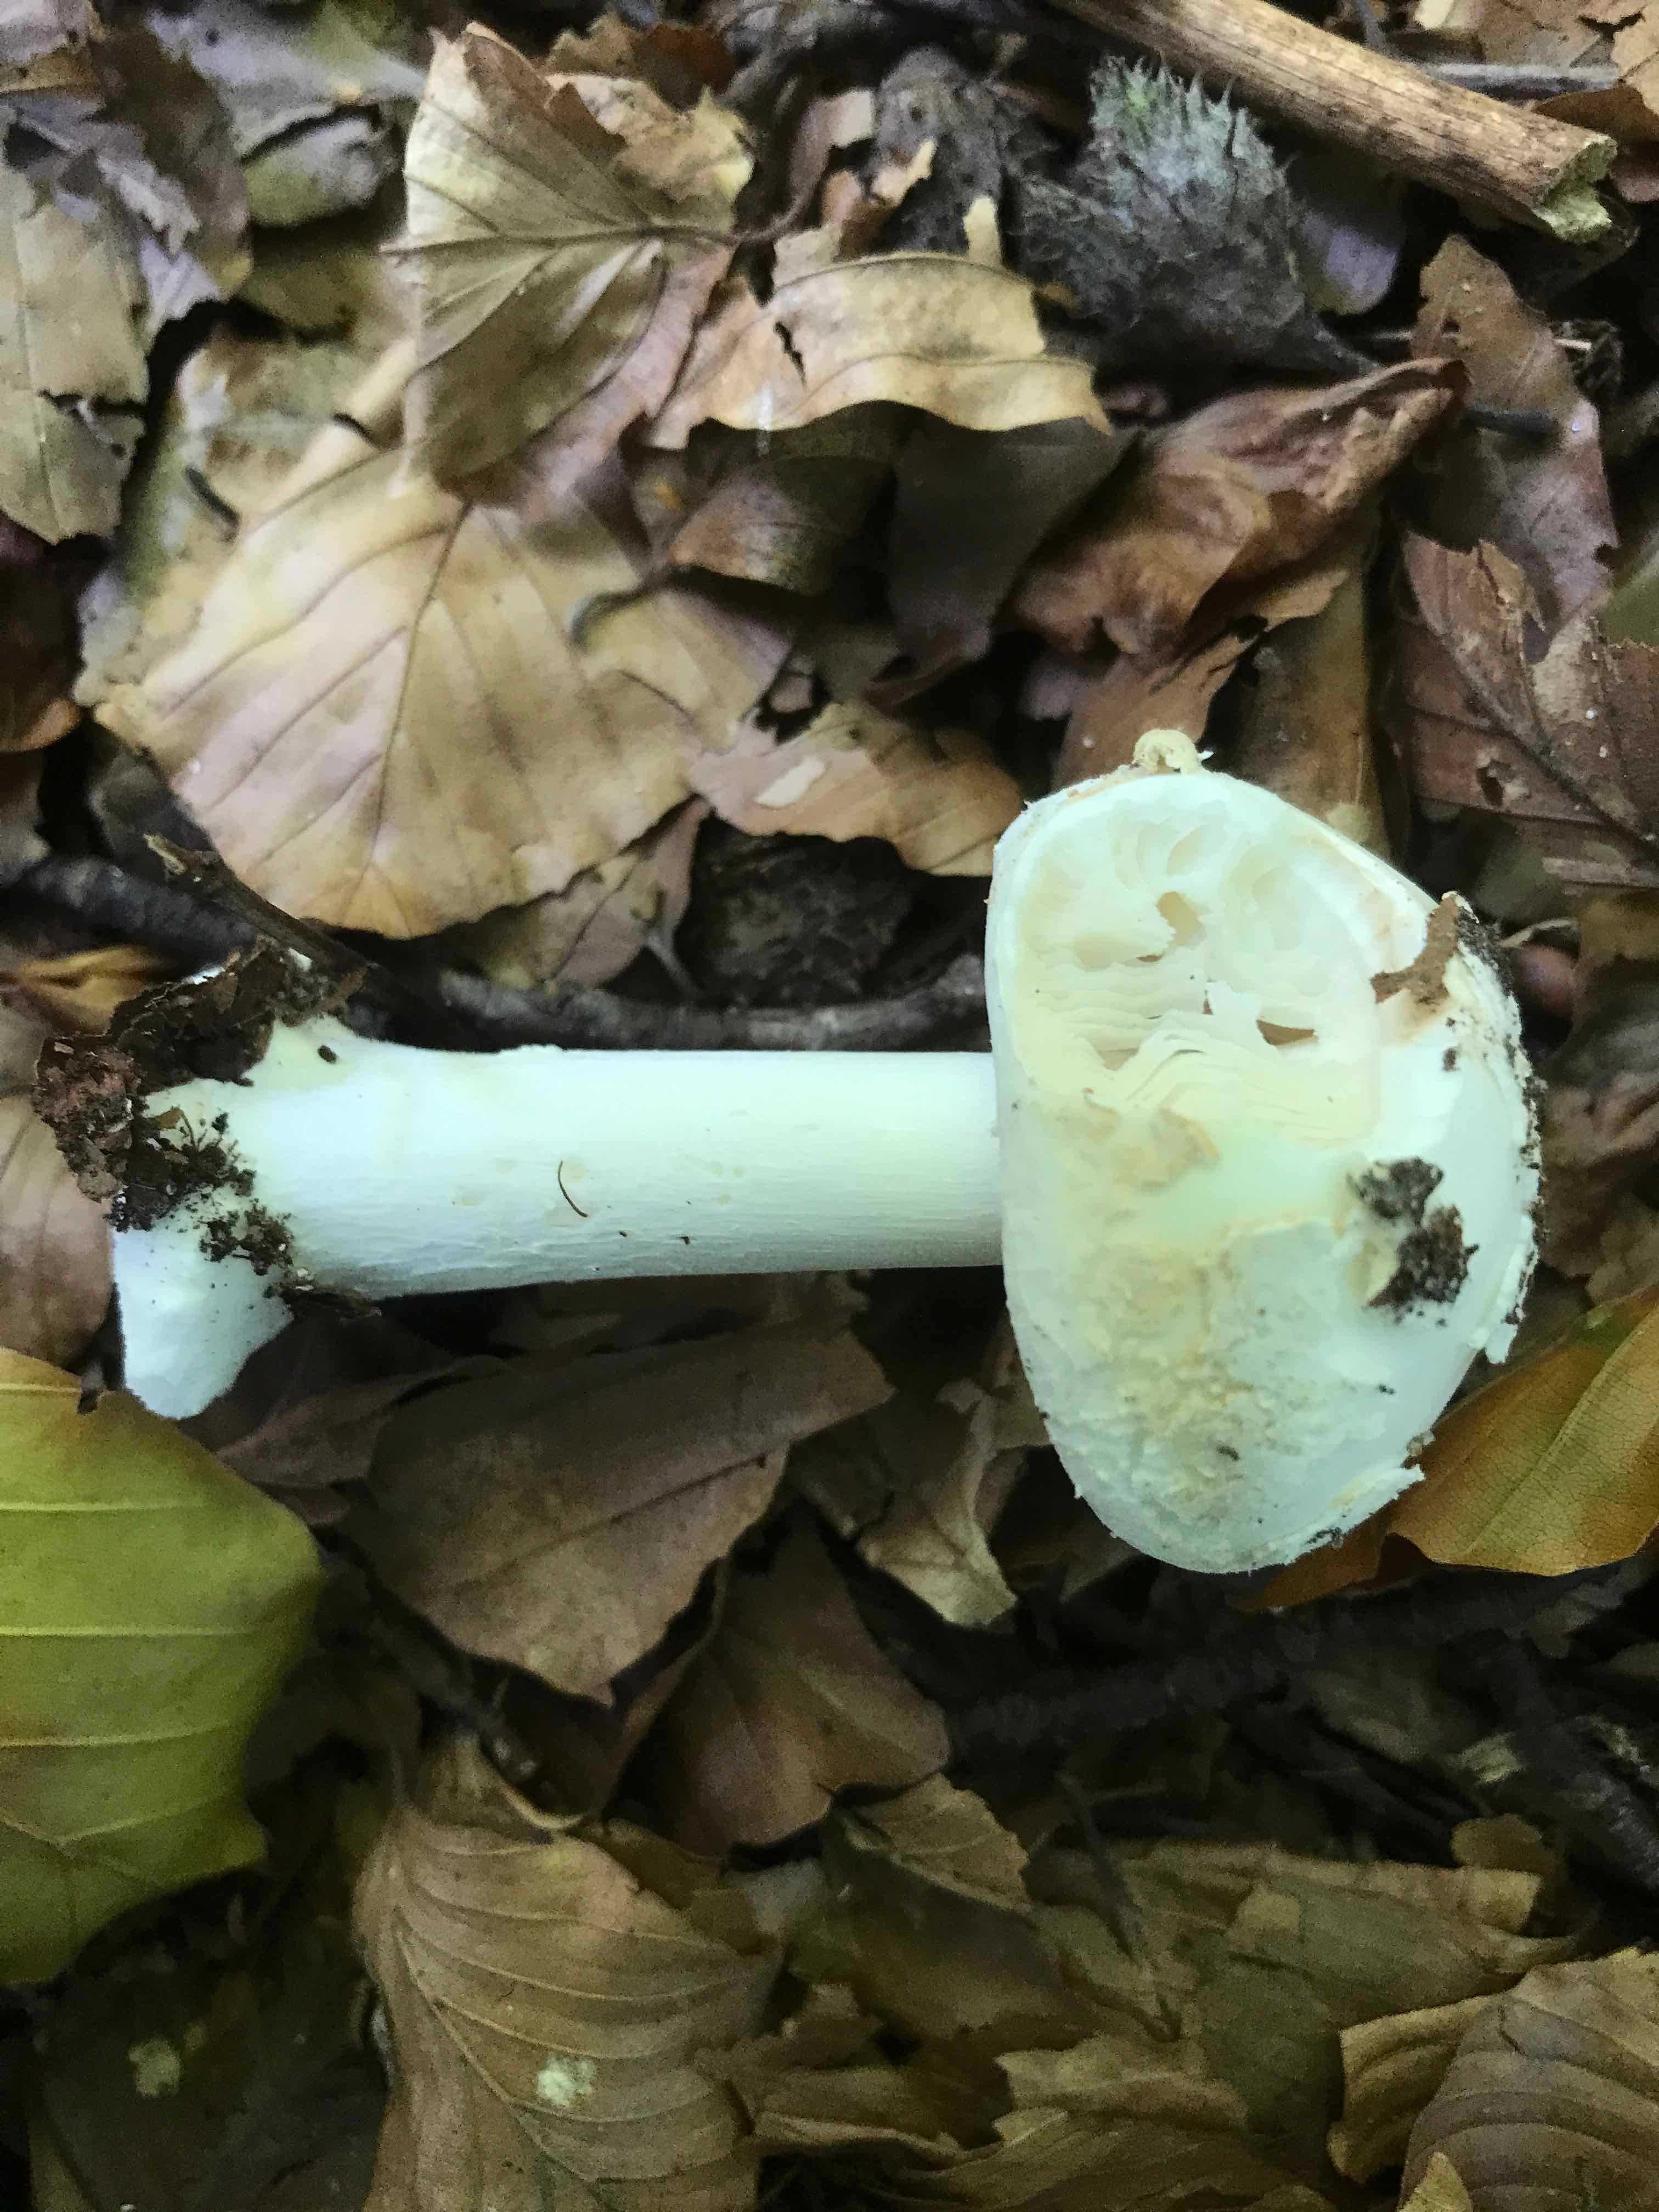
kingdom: Fungi
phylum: Basidiomycota
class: Agaricomycetes
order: Agaricales
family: Amanitaceae
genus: Amanita
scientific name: Amanita citrina
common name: kugleknoldet fluesvamp
